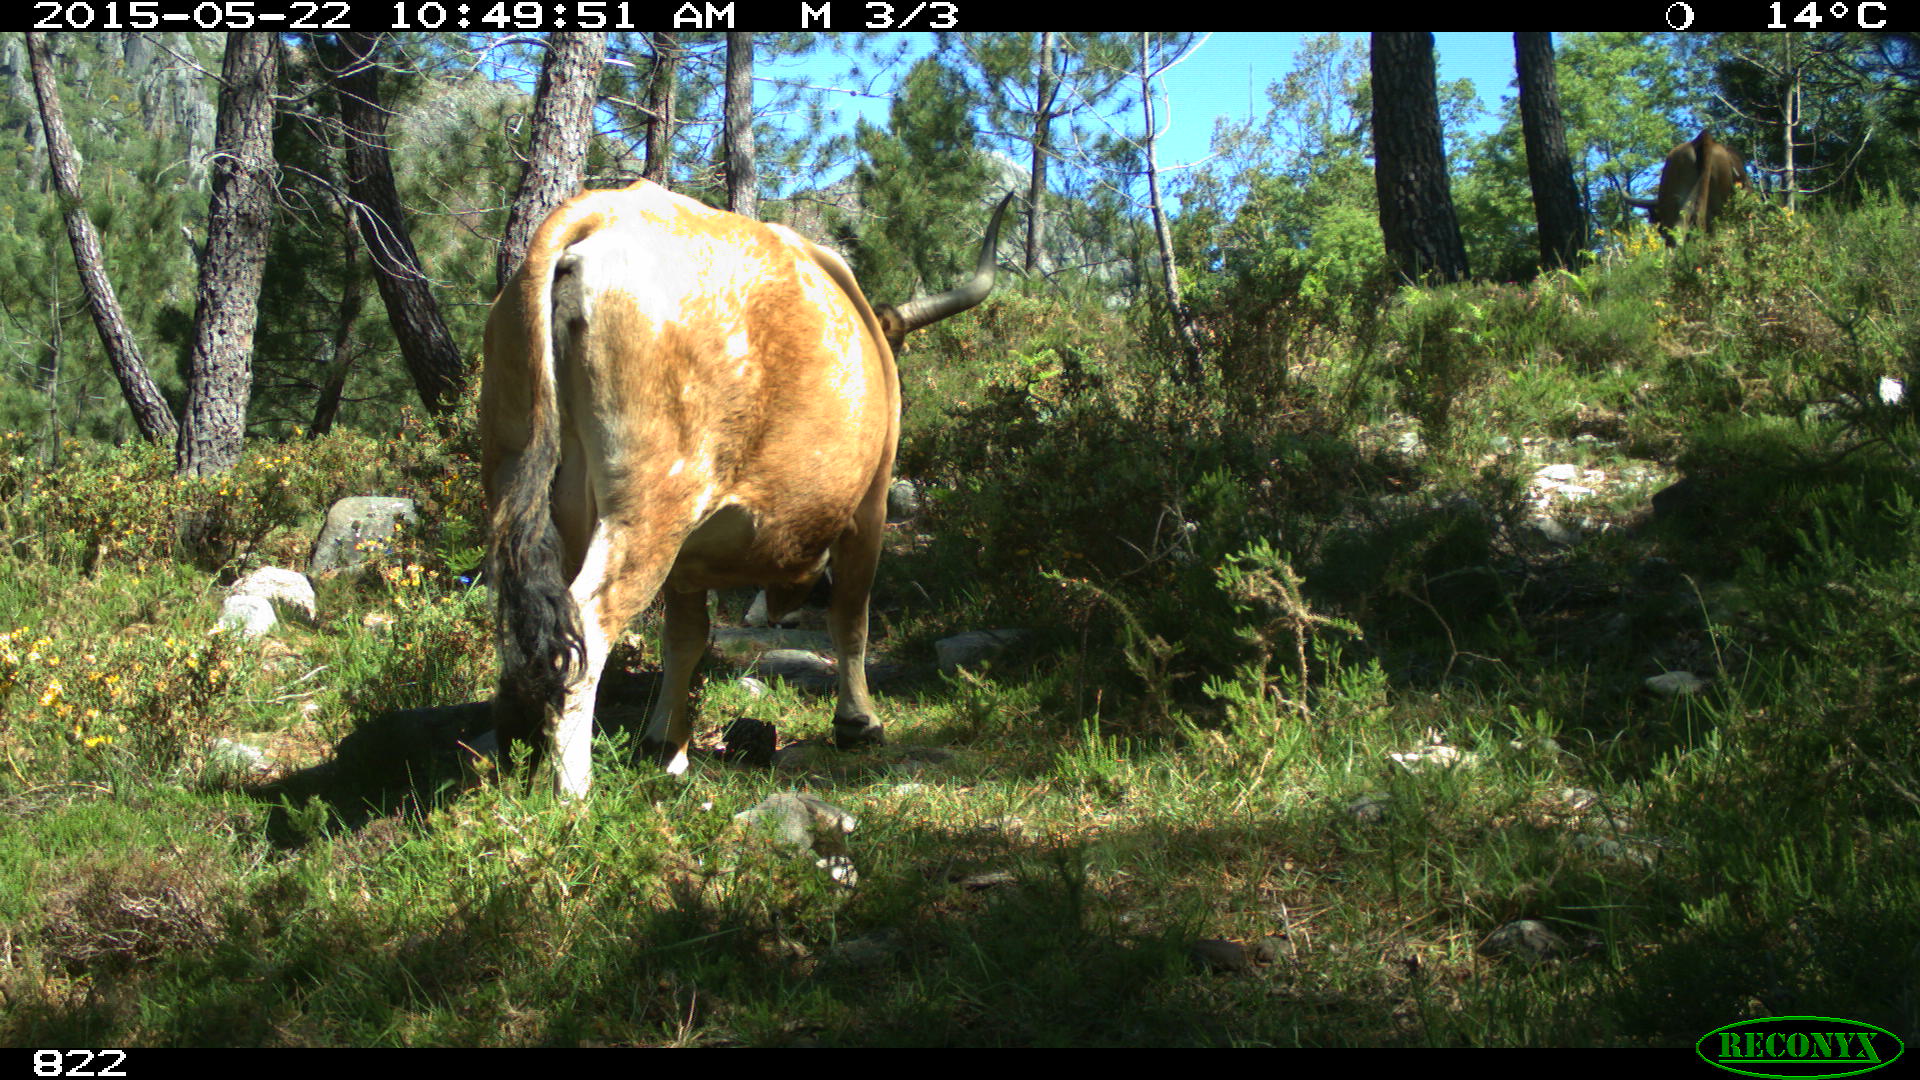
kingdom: Animalia
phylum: Chordata
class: Mammalia
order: Artiodactyla
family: Bovidae
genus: Bos
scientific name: Bos taurus
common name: Domesticated cattle
